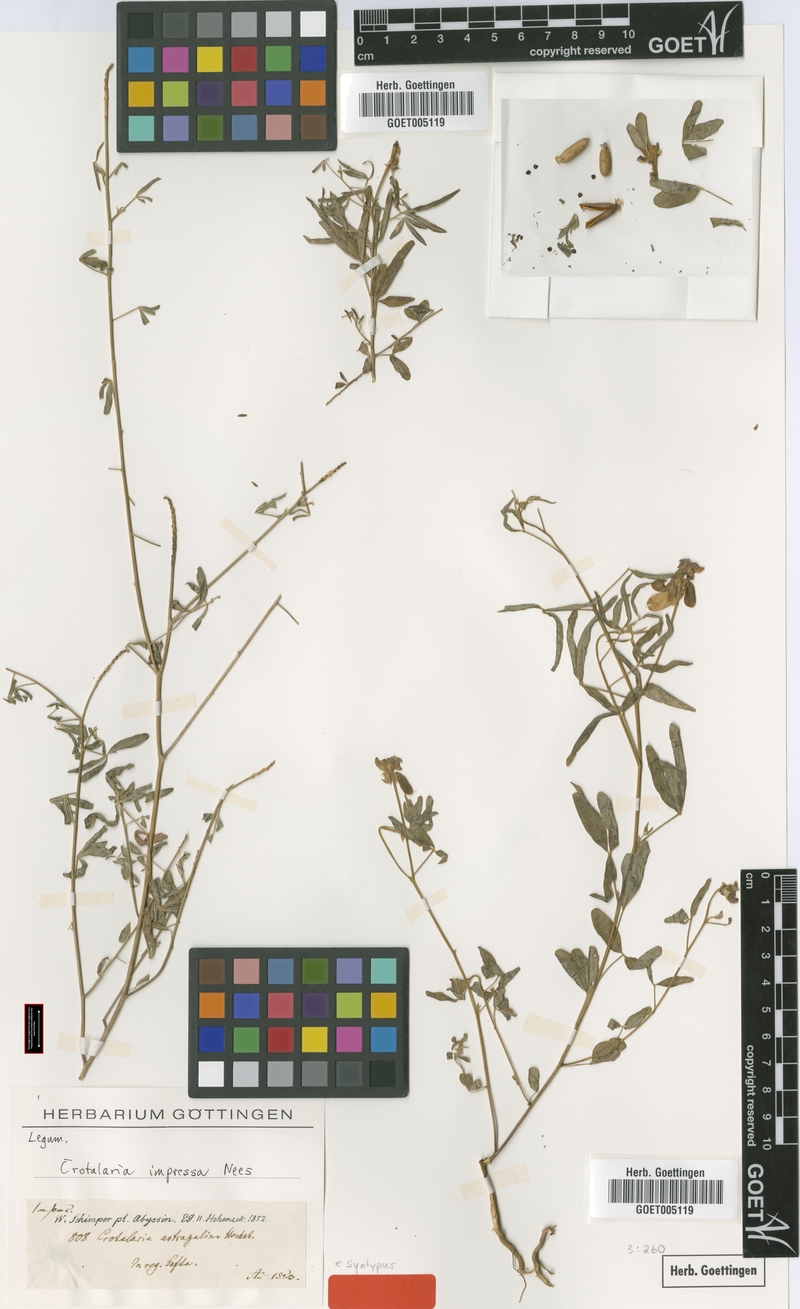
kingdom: Plantae
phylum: Tracheophyta
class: Magnoliopsida
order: Fabales
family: Fabaceae
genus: Crotalaria
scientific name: Crotalaria impressa
